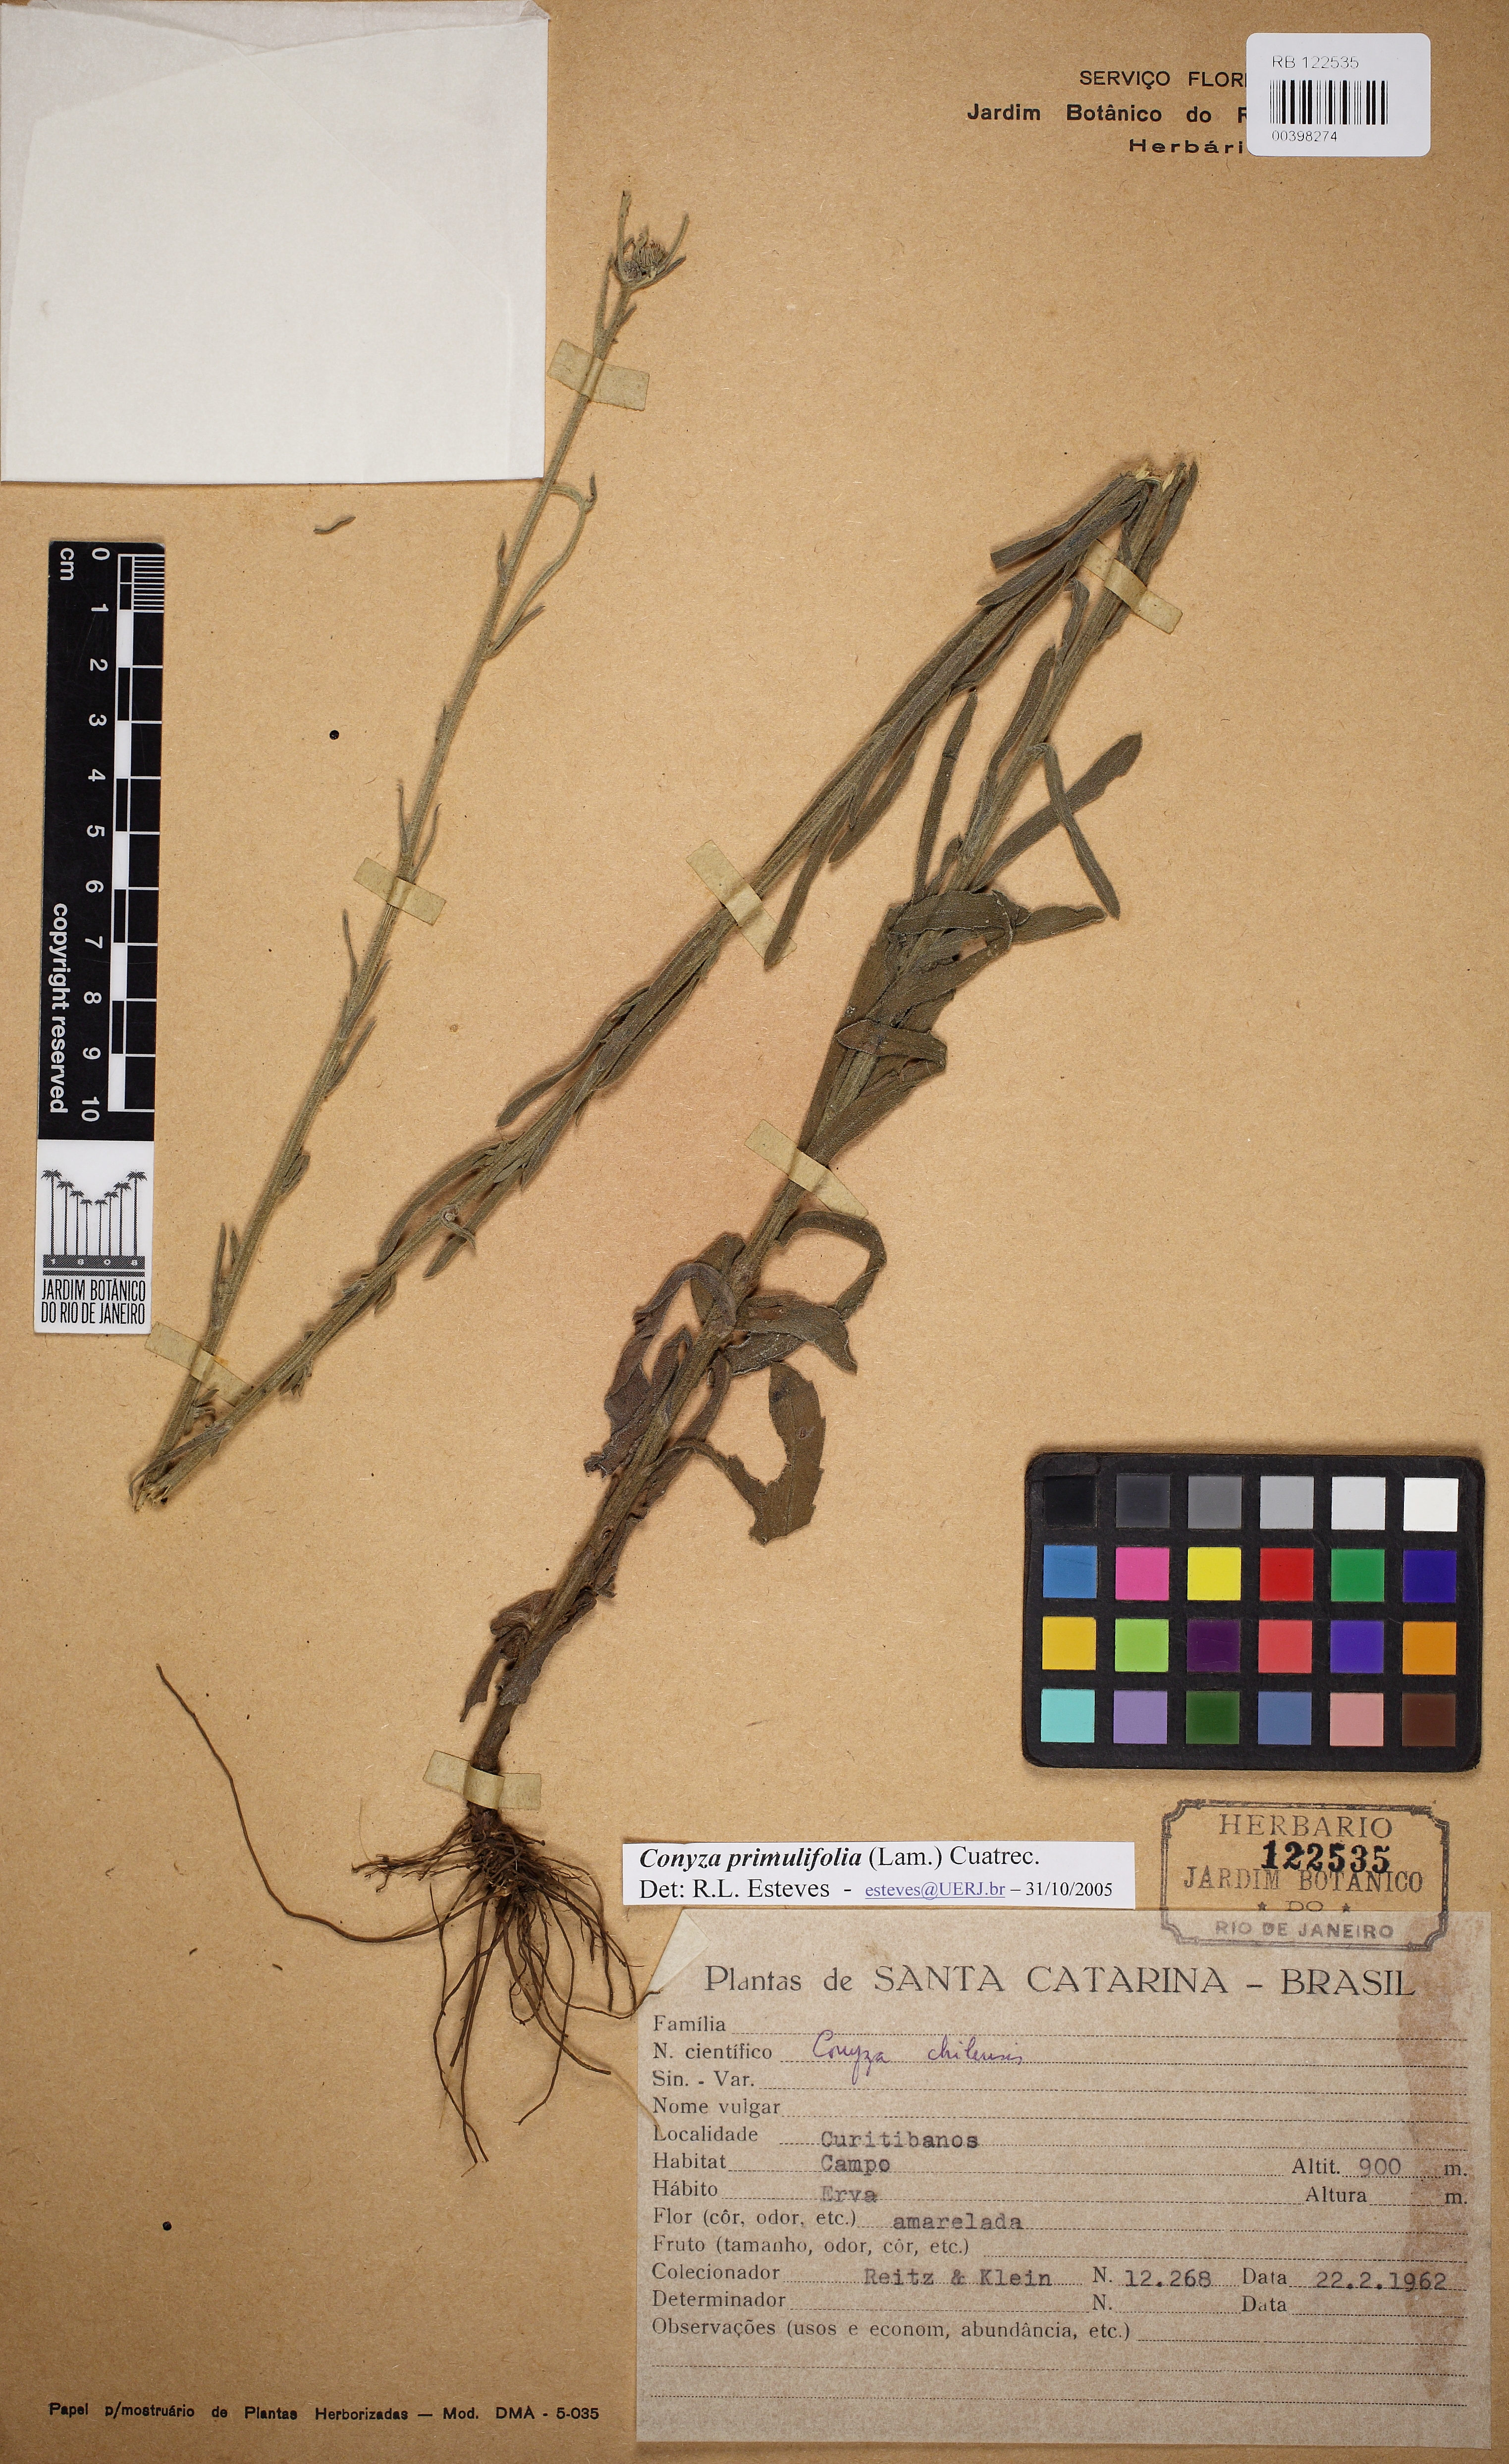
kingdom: Plantae
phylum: Tracheophyta
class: Magnoliopsida
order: Asterales
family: Asteraceae
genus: Erigeron
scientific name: Erigeron primulifolius
